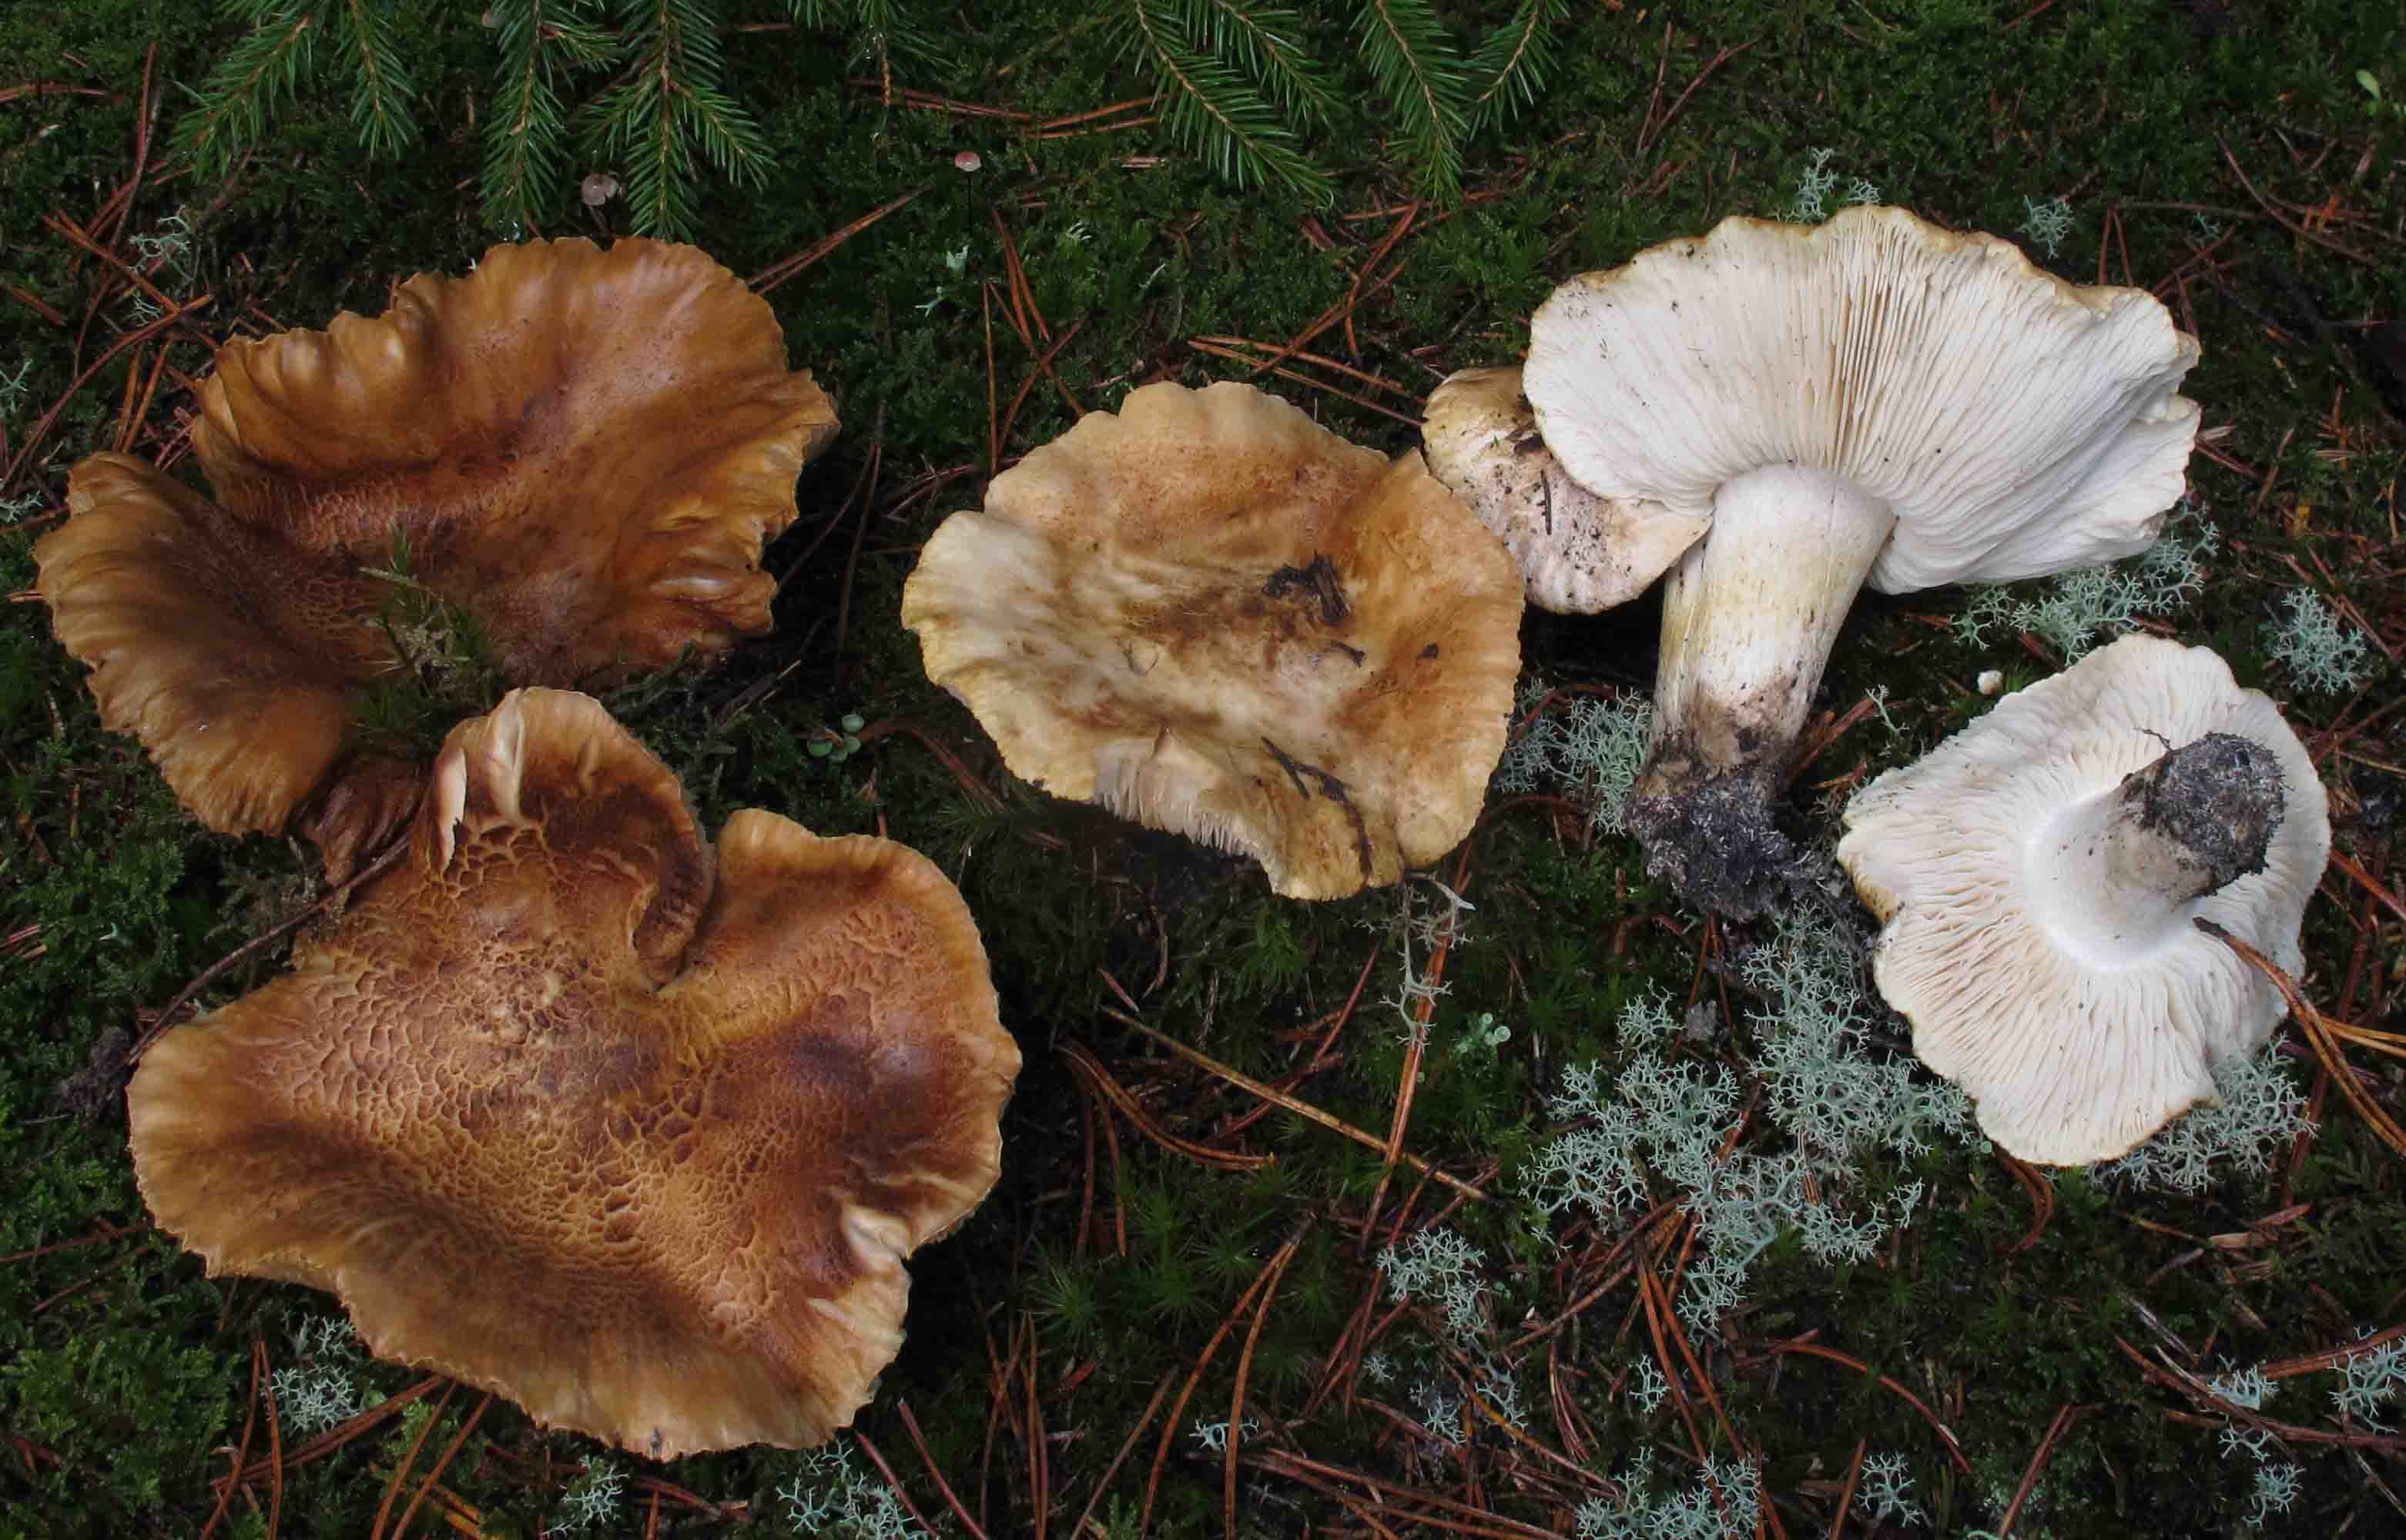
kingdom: Fungi
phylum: Basidiomycota
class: Agaricomycetes
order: Agaricales
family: Tricholomataceae
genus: Tricholoma
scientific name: Tricholoma apium
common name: suppe-ridderhat
